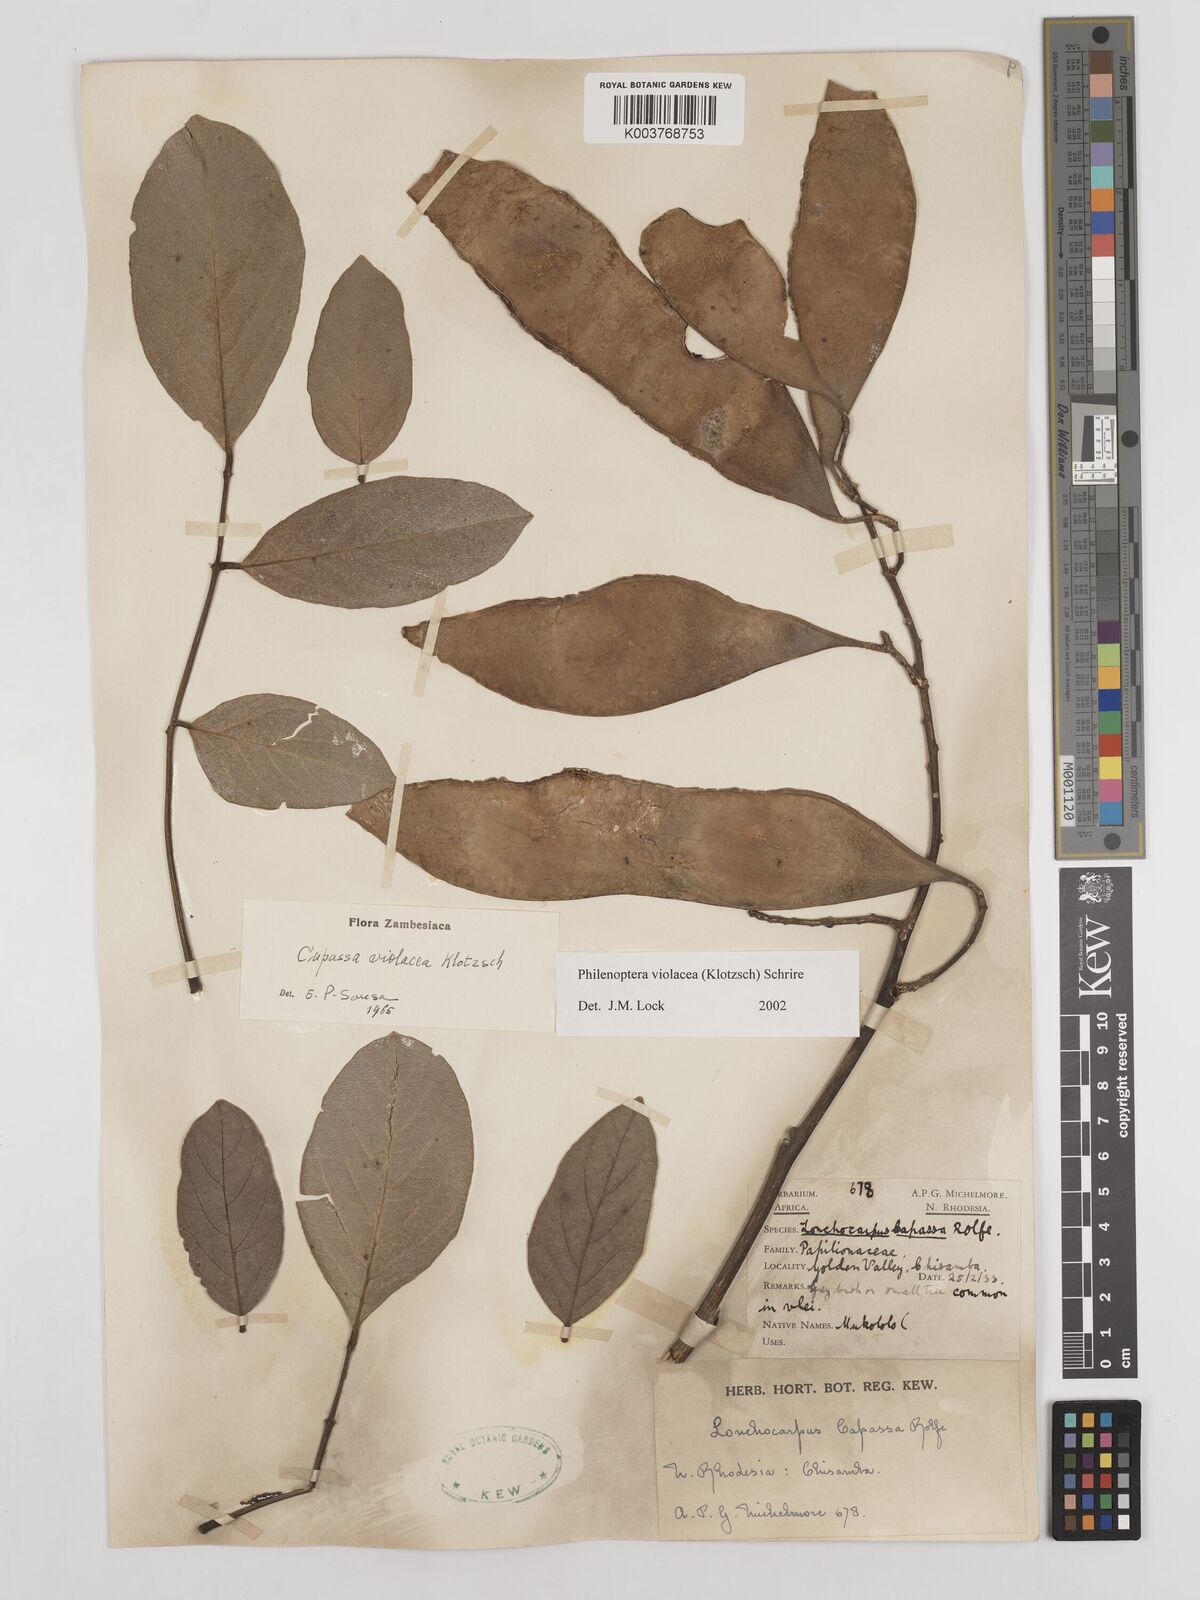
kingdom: Plantae
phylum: Tracheophyta
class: Magnoliopsida
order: Fabales
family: Fabaceae
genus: Philenoptera
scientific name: Philenoptera violacea
